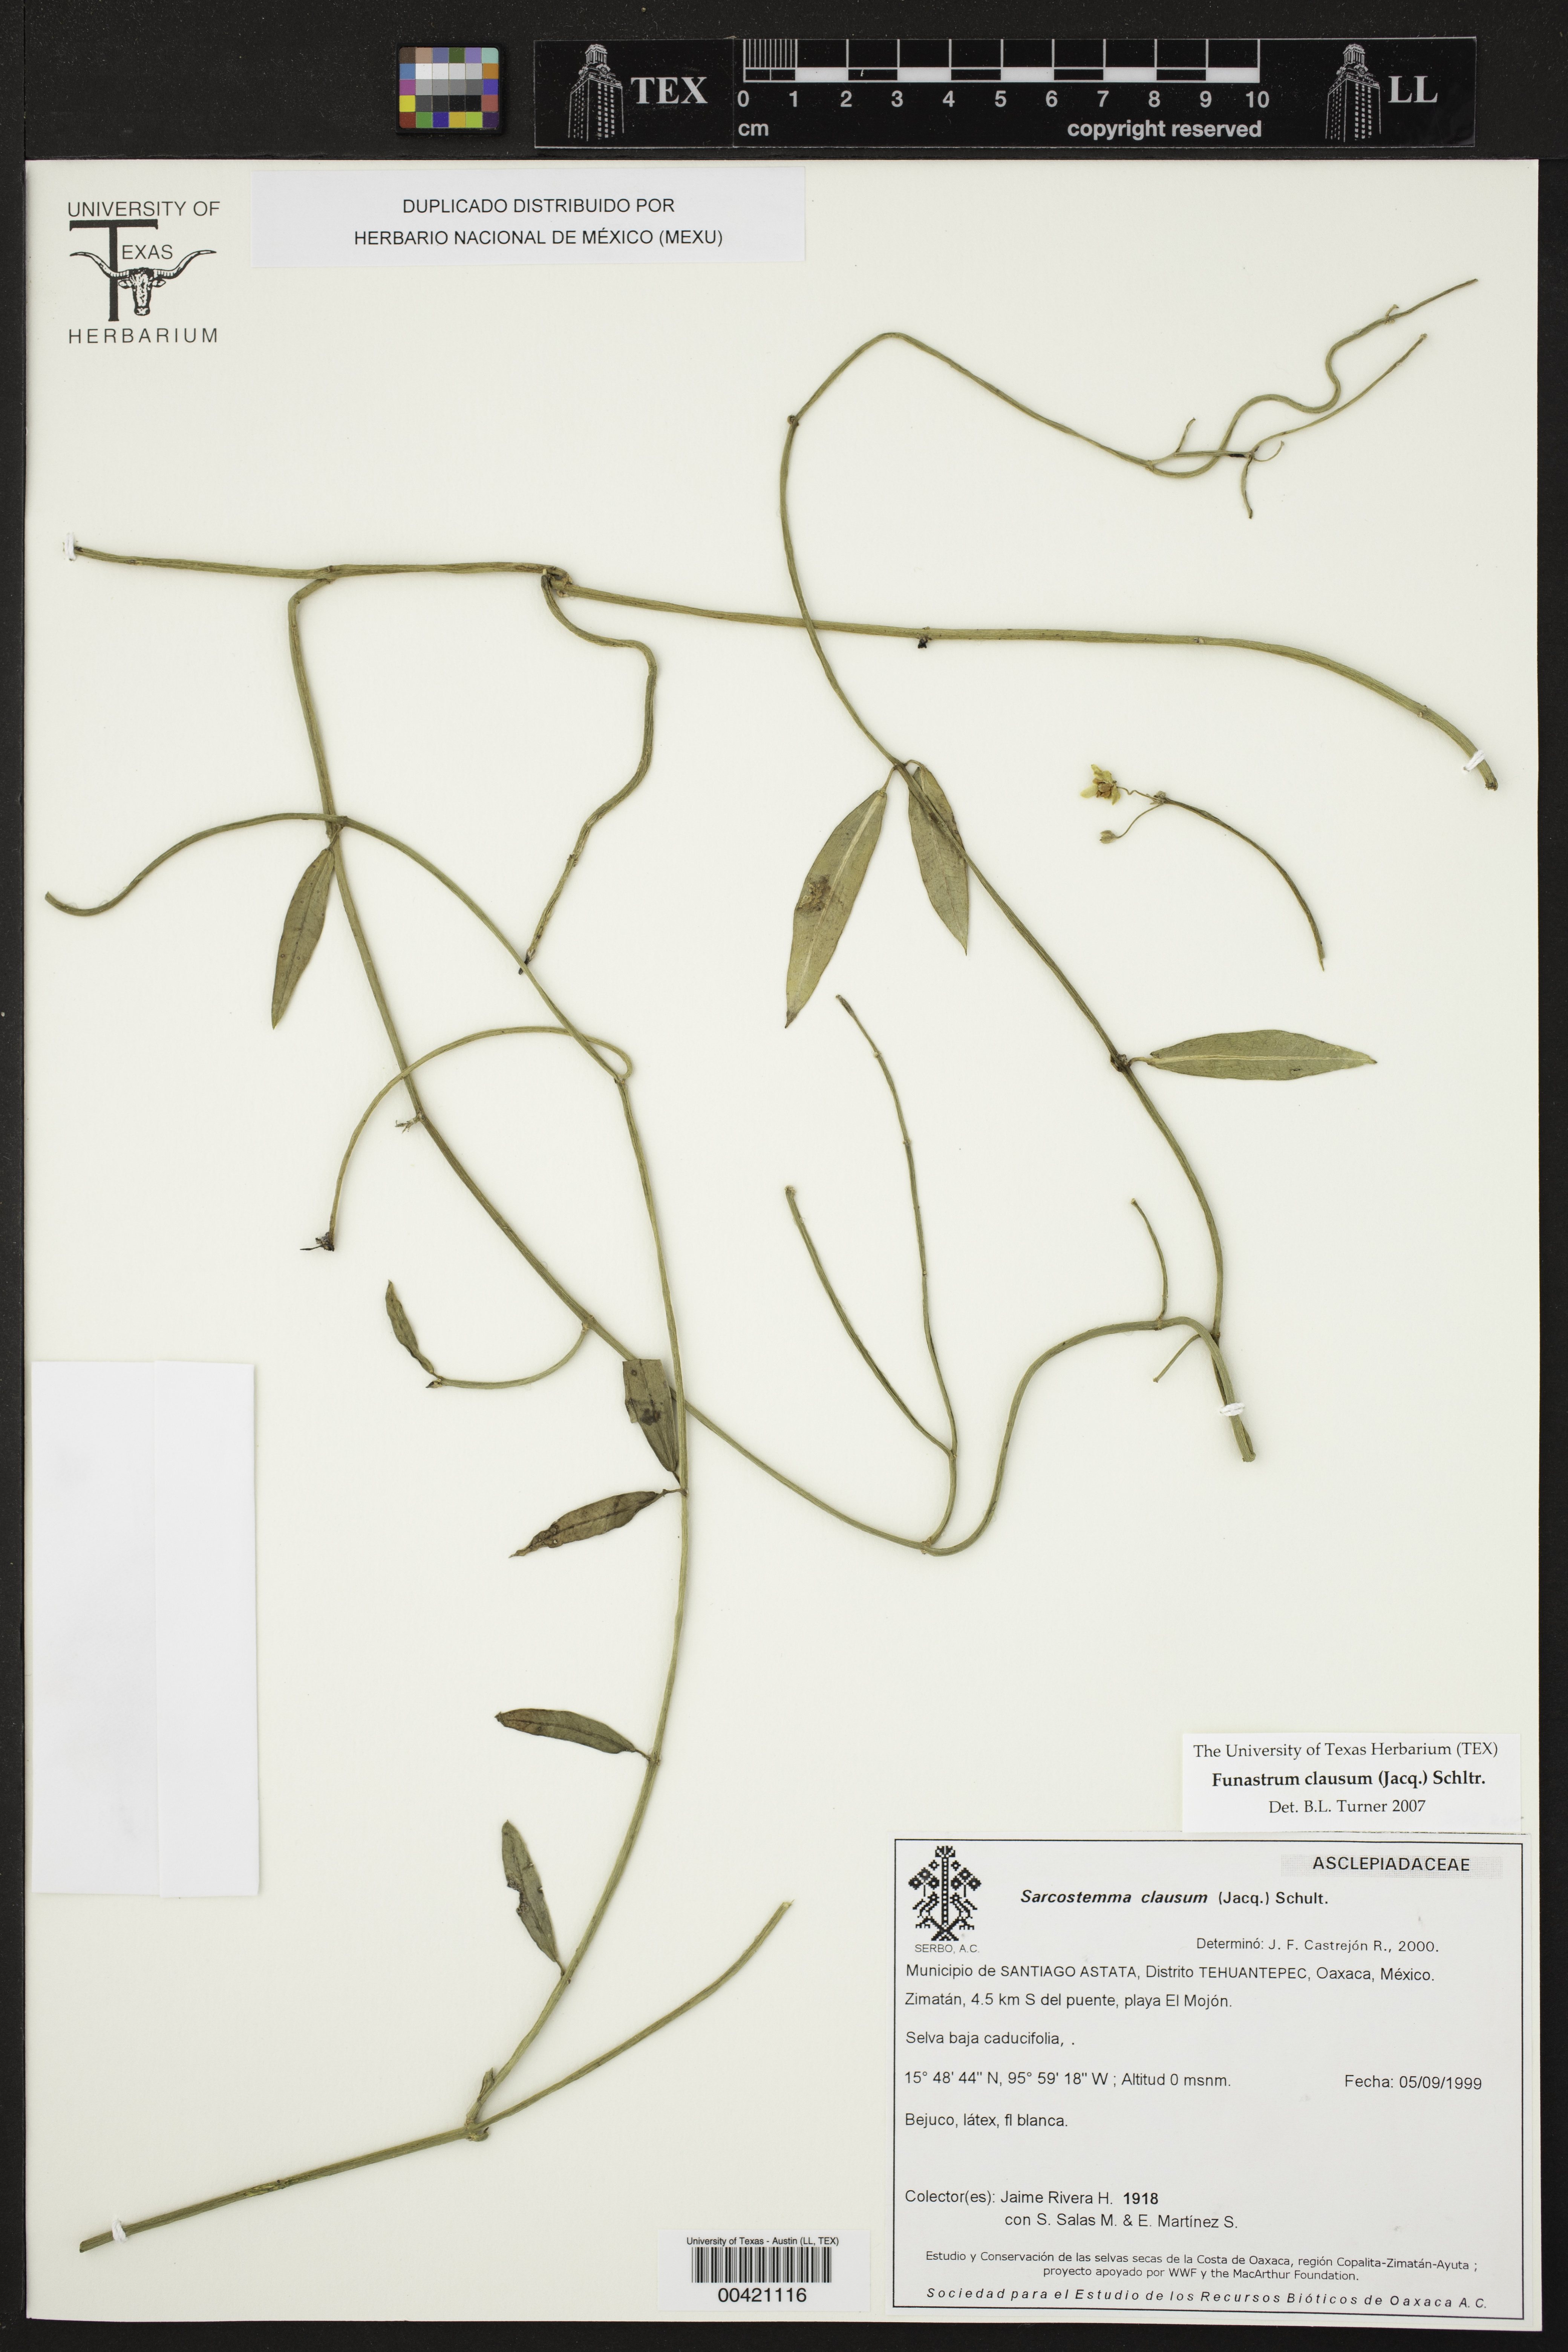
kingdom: Plantae
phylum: Tracheophyta
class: Magnoliopsida
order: Gentianales
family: Apocynaceae
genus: Funastrum
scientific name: Funastrum clausum
